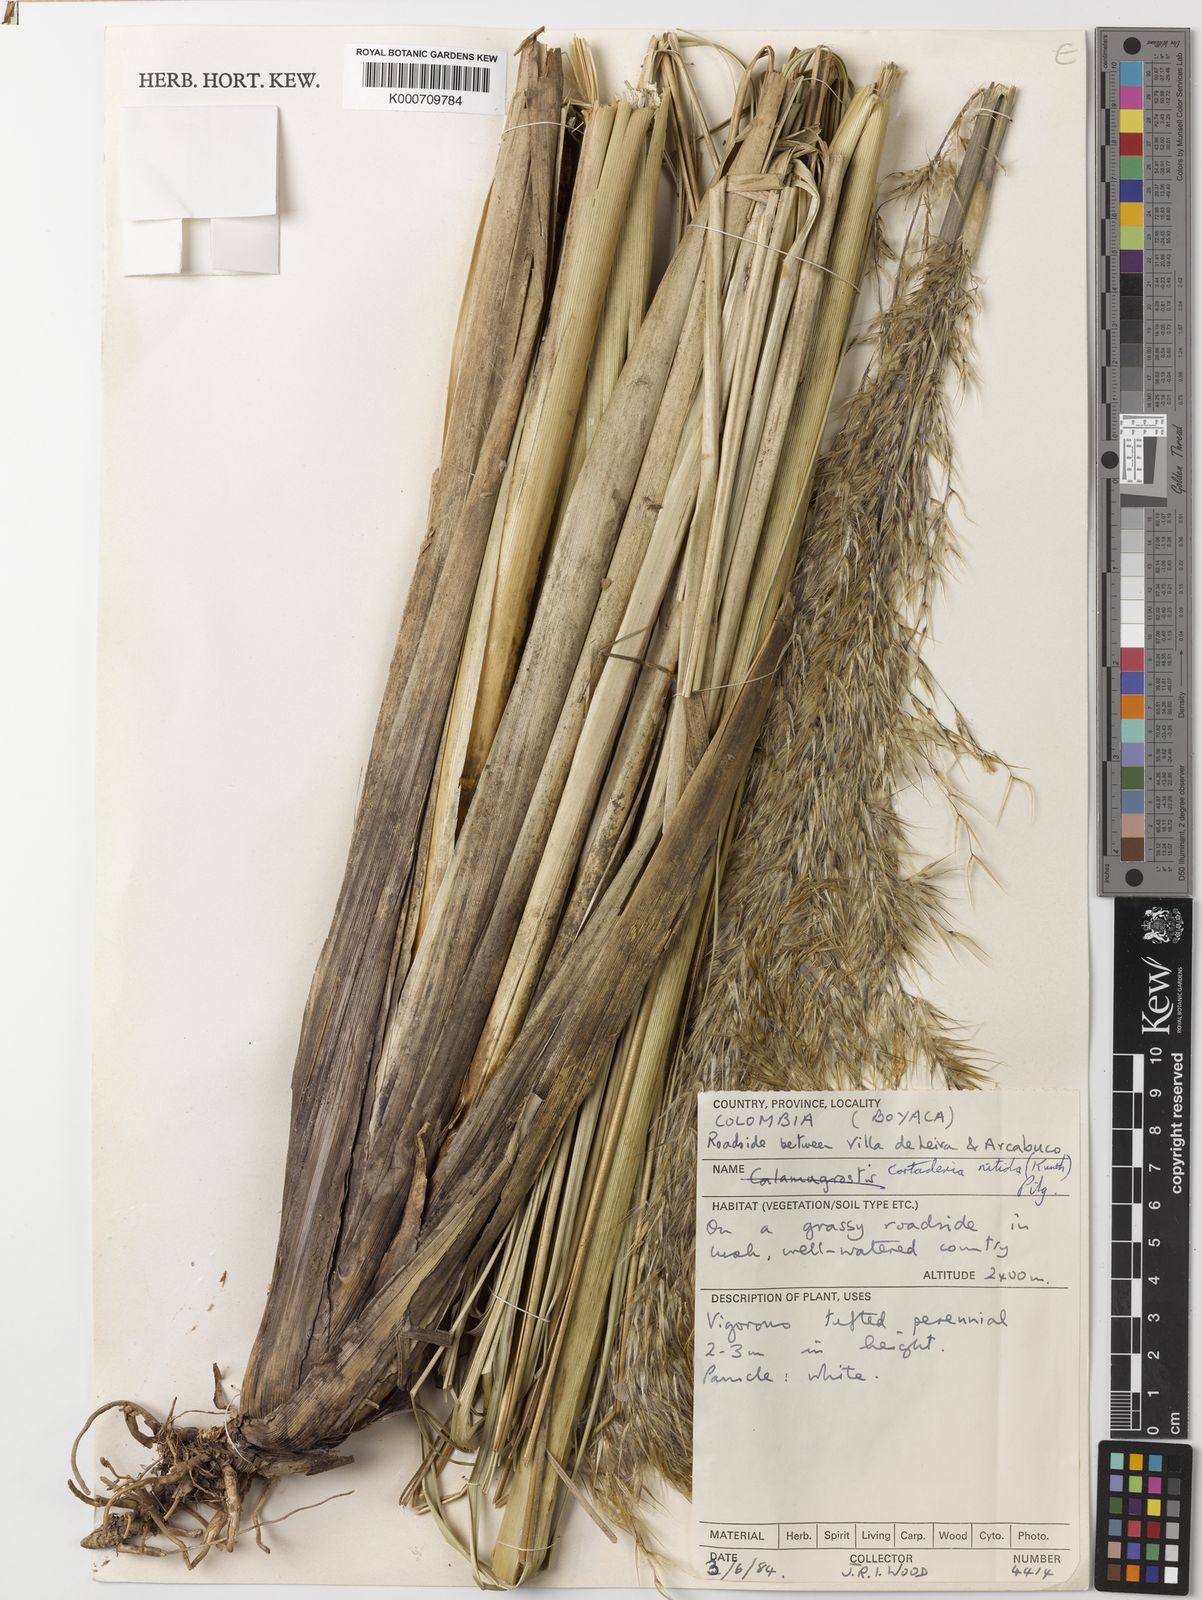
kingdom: Plantae
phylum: Tracheophyta
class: Liliopsida
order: Poales
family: Poaceae
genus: Cortaderia
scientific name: Cortaderia nitida
